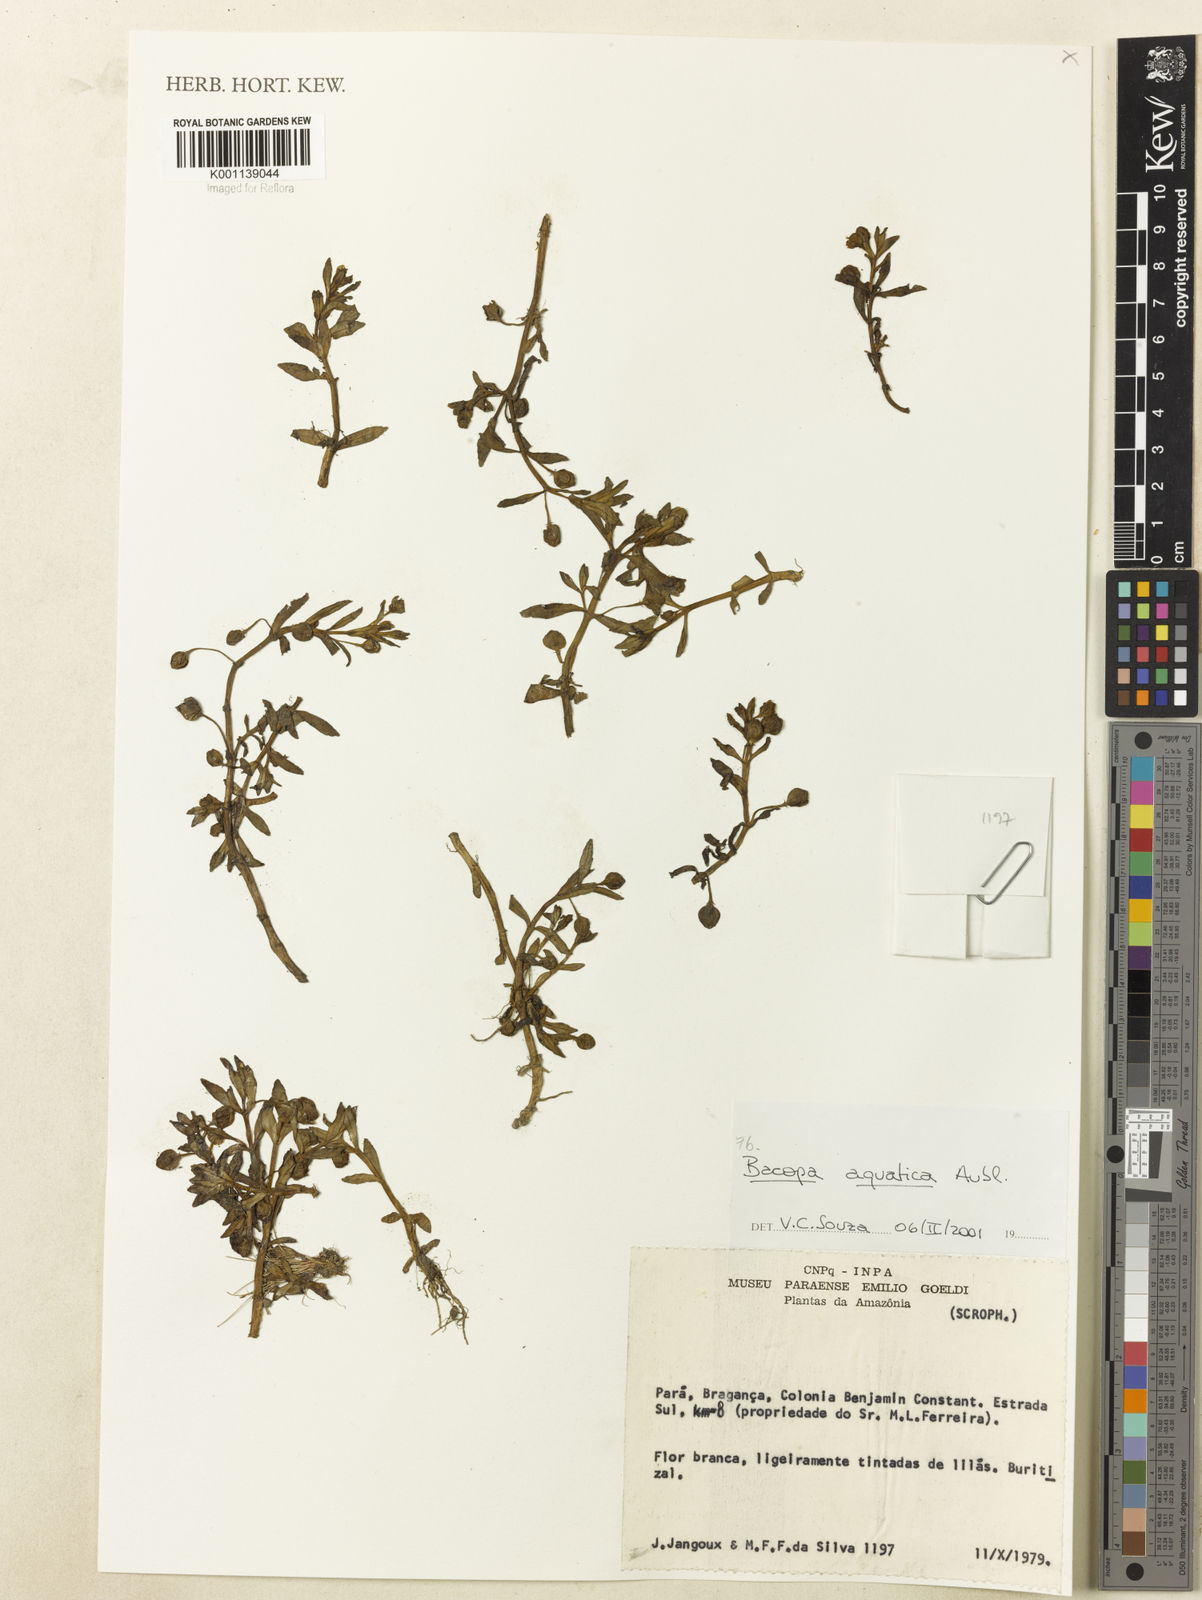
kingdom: Plantae
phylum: Tracheophyta
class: Magnoliopsida
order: Lamiales
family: Plantaginaceae
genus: Bacopa
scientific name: Bacopa aquatica
